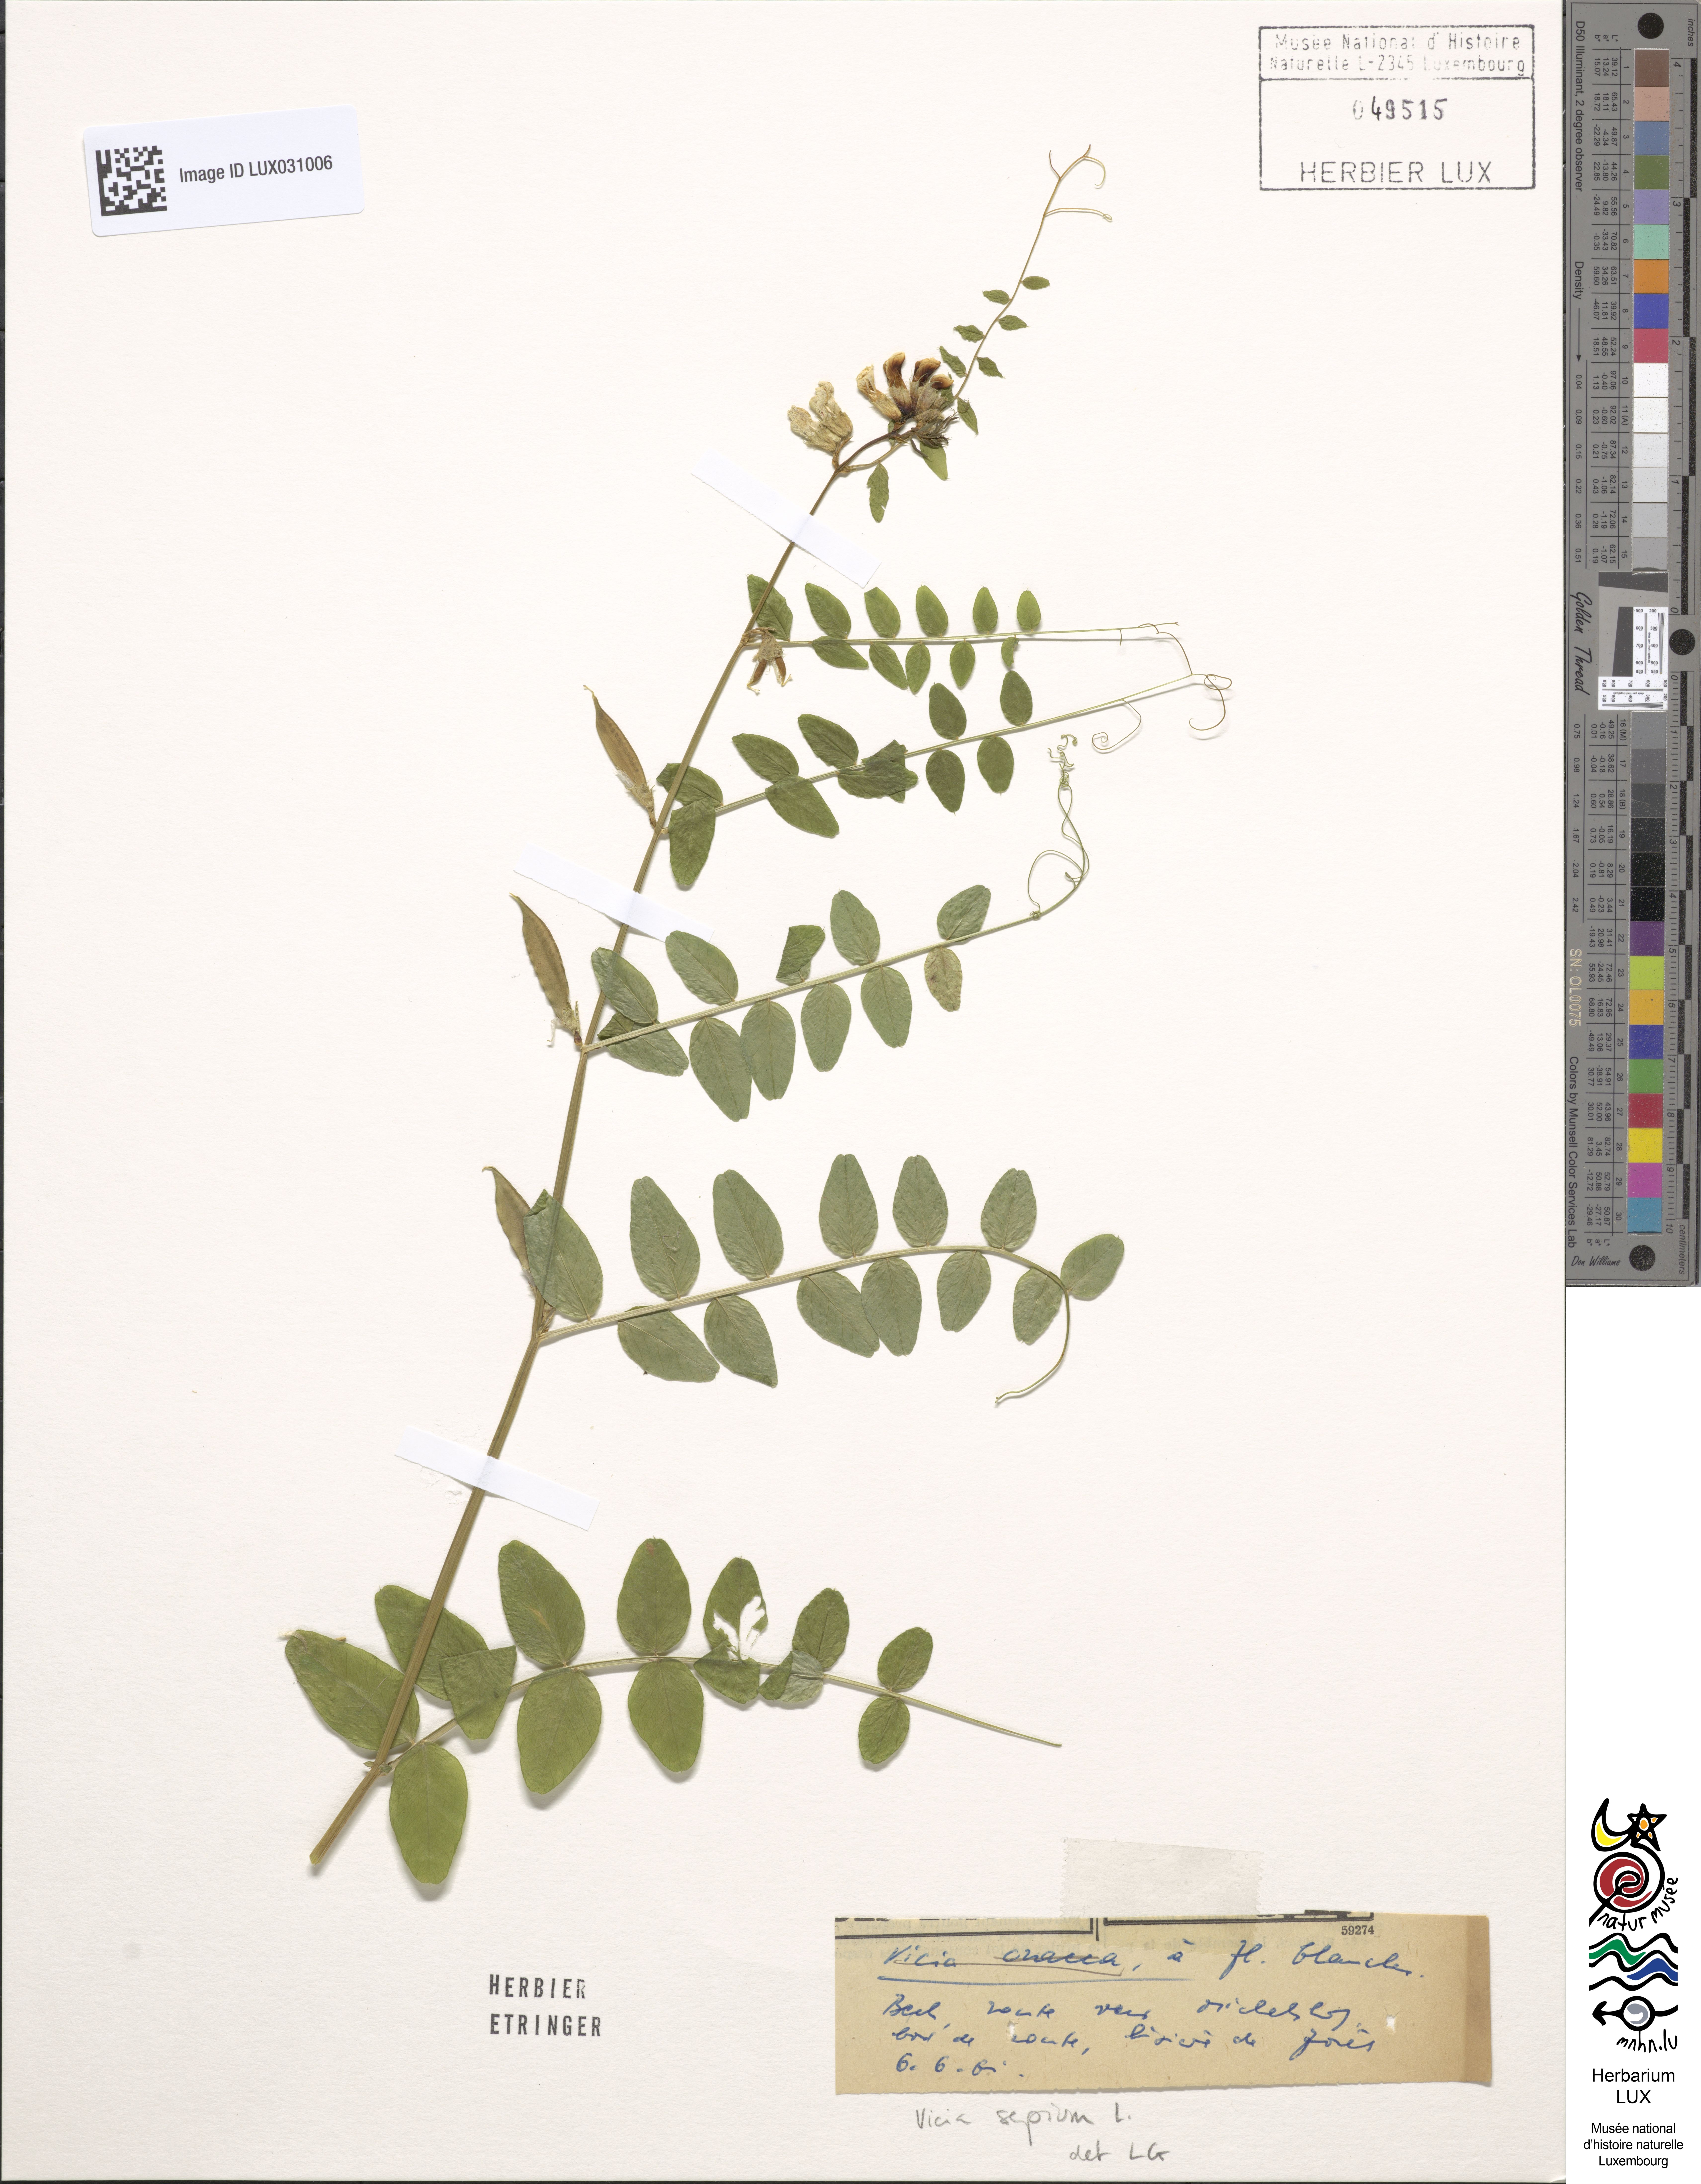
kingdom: Plantae
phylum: Tracheophyta
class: Magnoliopsida
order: Fabales
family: Fabaceae
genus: Vicia
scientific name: Vicia sepium
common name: Bush vetch
